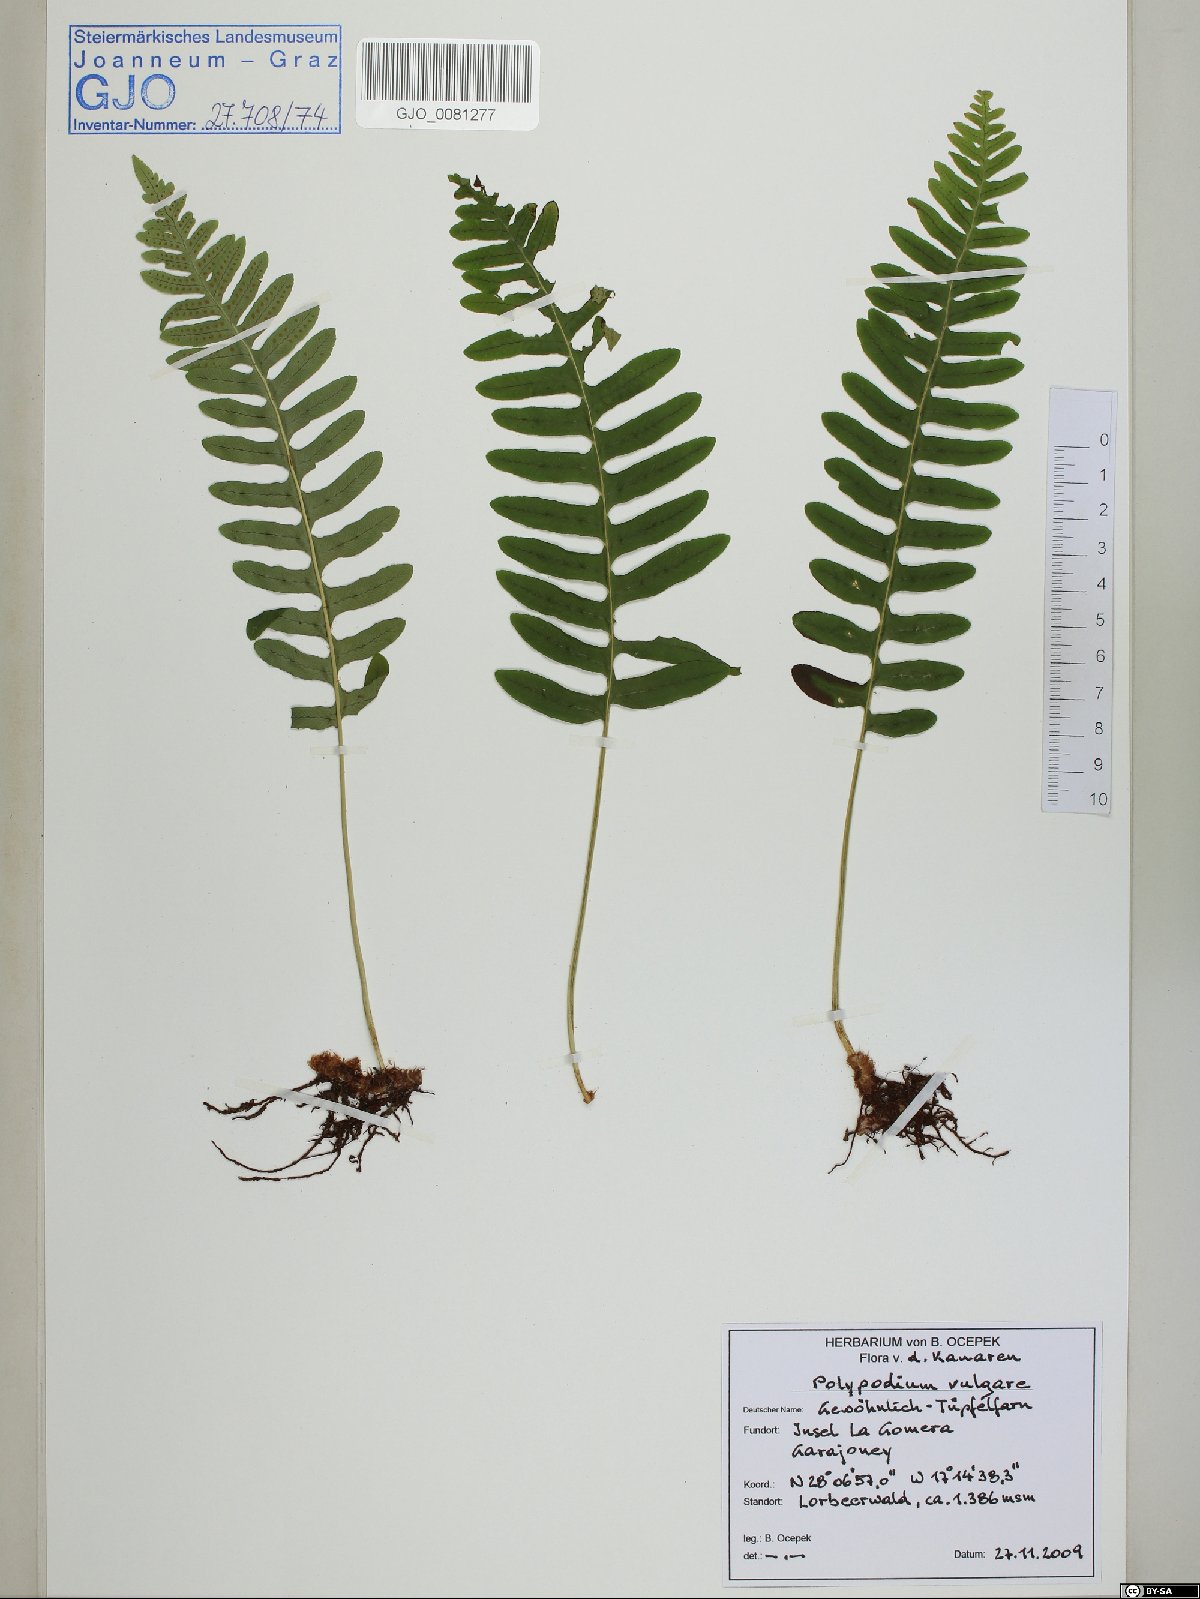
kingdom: Plantae
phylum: Tracheophyta
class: Polypodiopsida
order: Polypodiales
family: Polypodiaceae
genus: Polypodium
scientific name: Polypodium vulgare
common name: Common polypody
